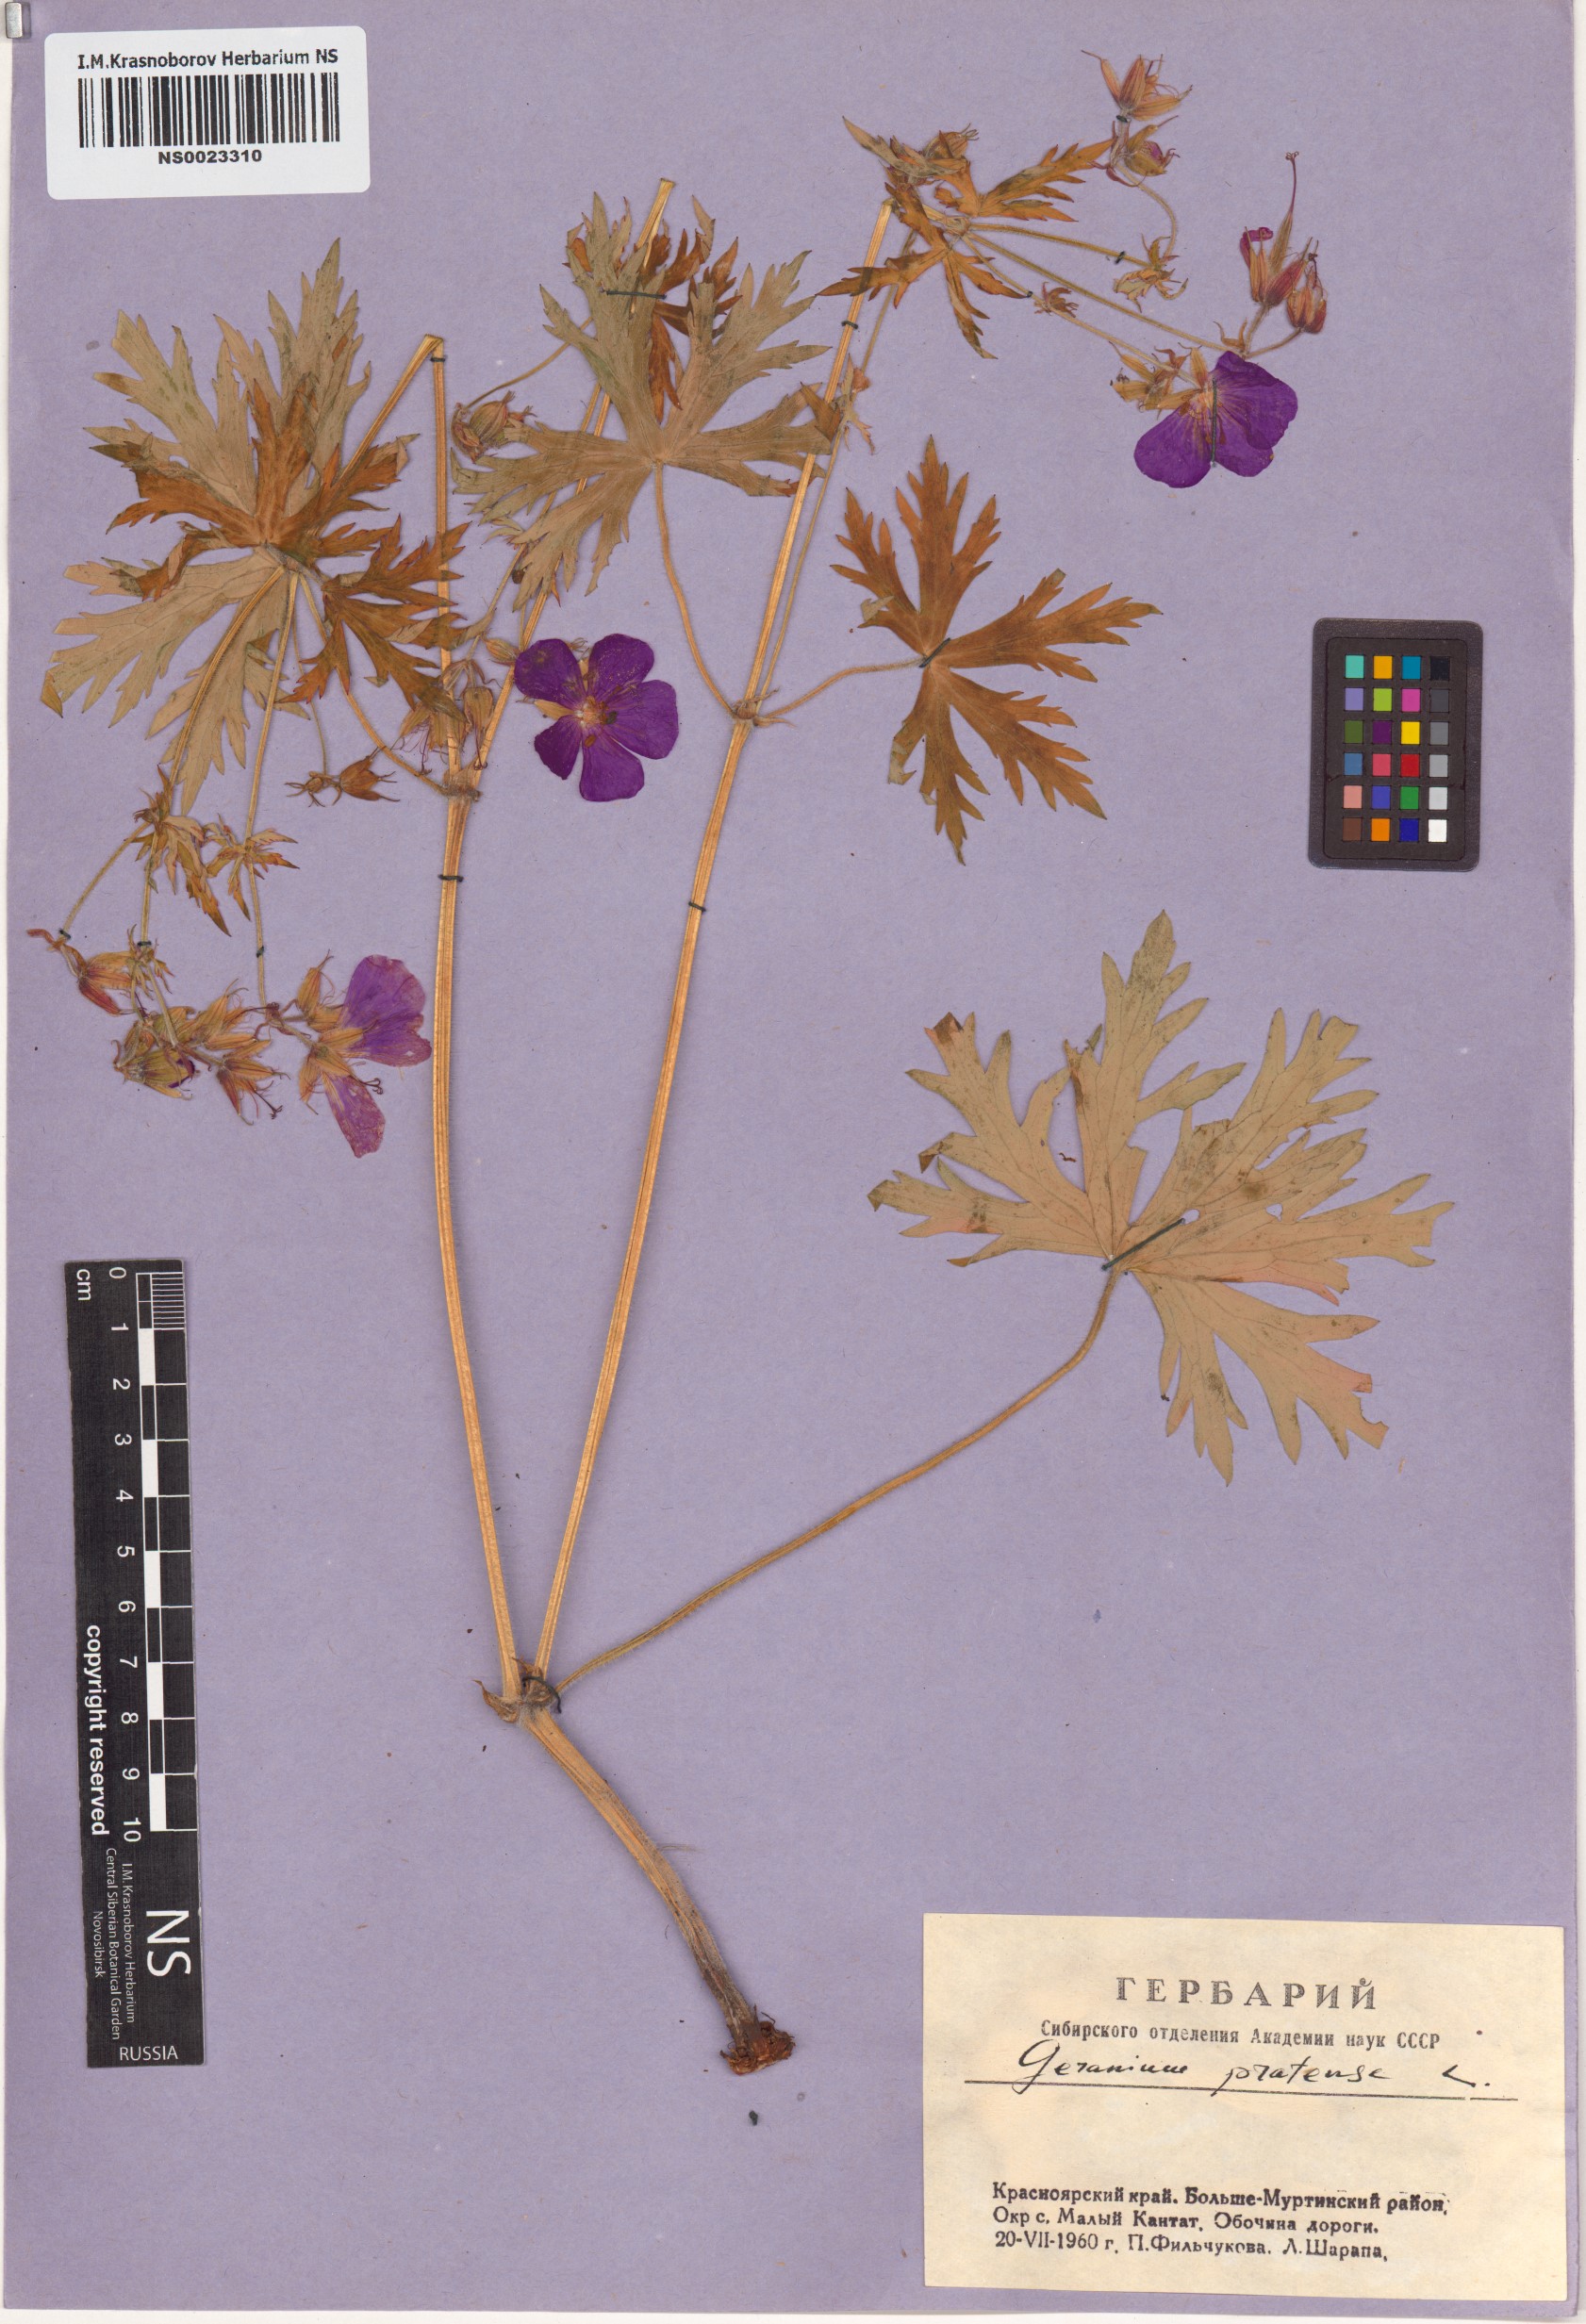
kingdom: Plantae
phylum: Tracheophyta
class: Magnoliopsida
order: Geraniales
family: Geraniaceae
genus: Geranium
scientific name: Geranium pratense
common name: Meadow crane's-bill
